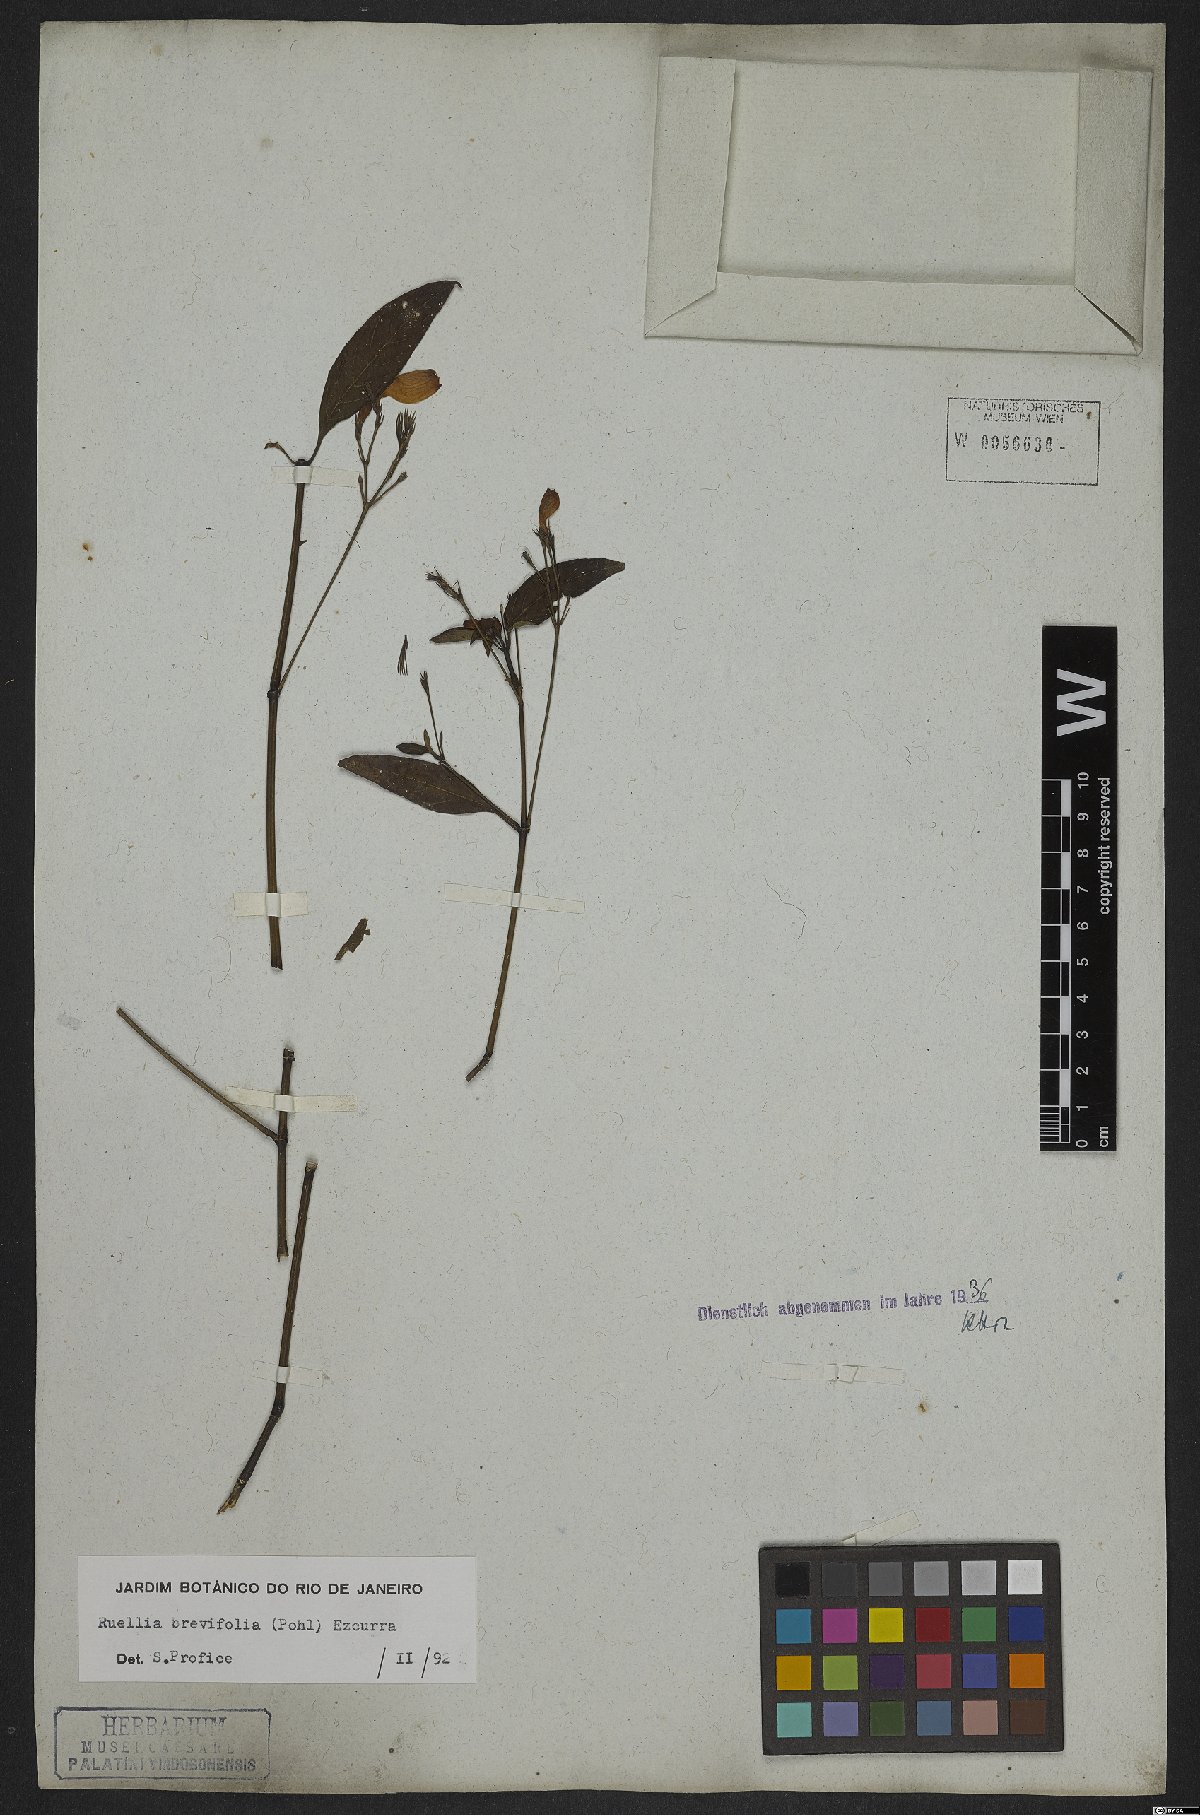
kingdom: Plantae
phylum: Tracheophyta
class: Magnoliopsida
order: Lamiales
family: Acanthaceae
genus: Ruellia
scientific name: Ruellia brevifolia
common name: Tropical wild petunia
